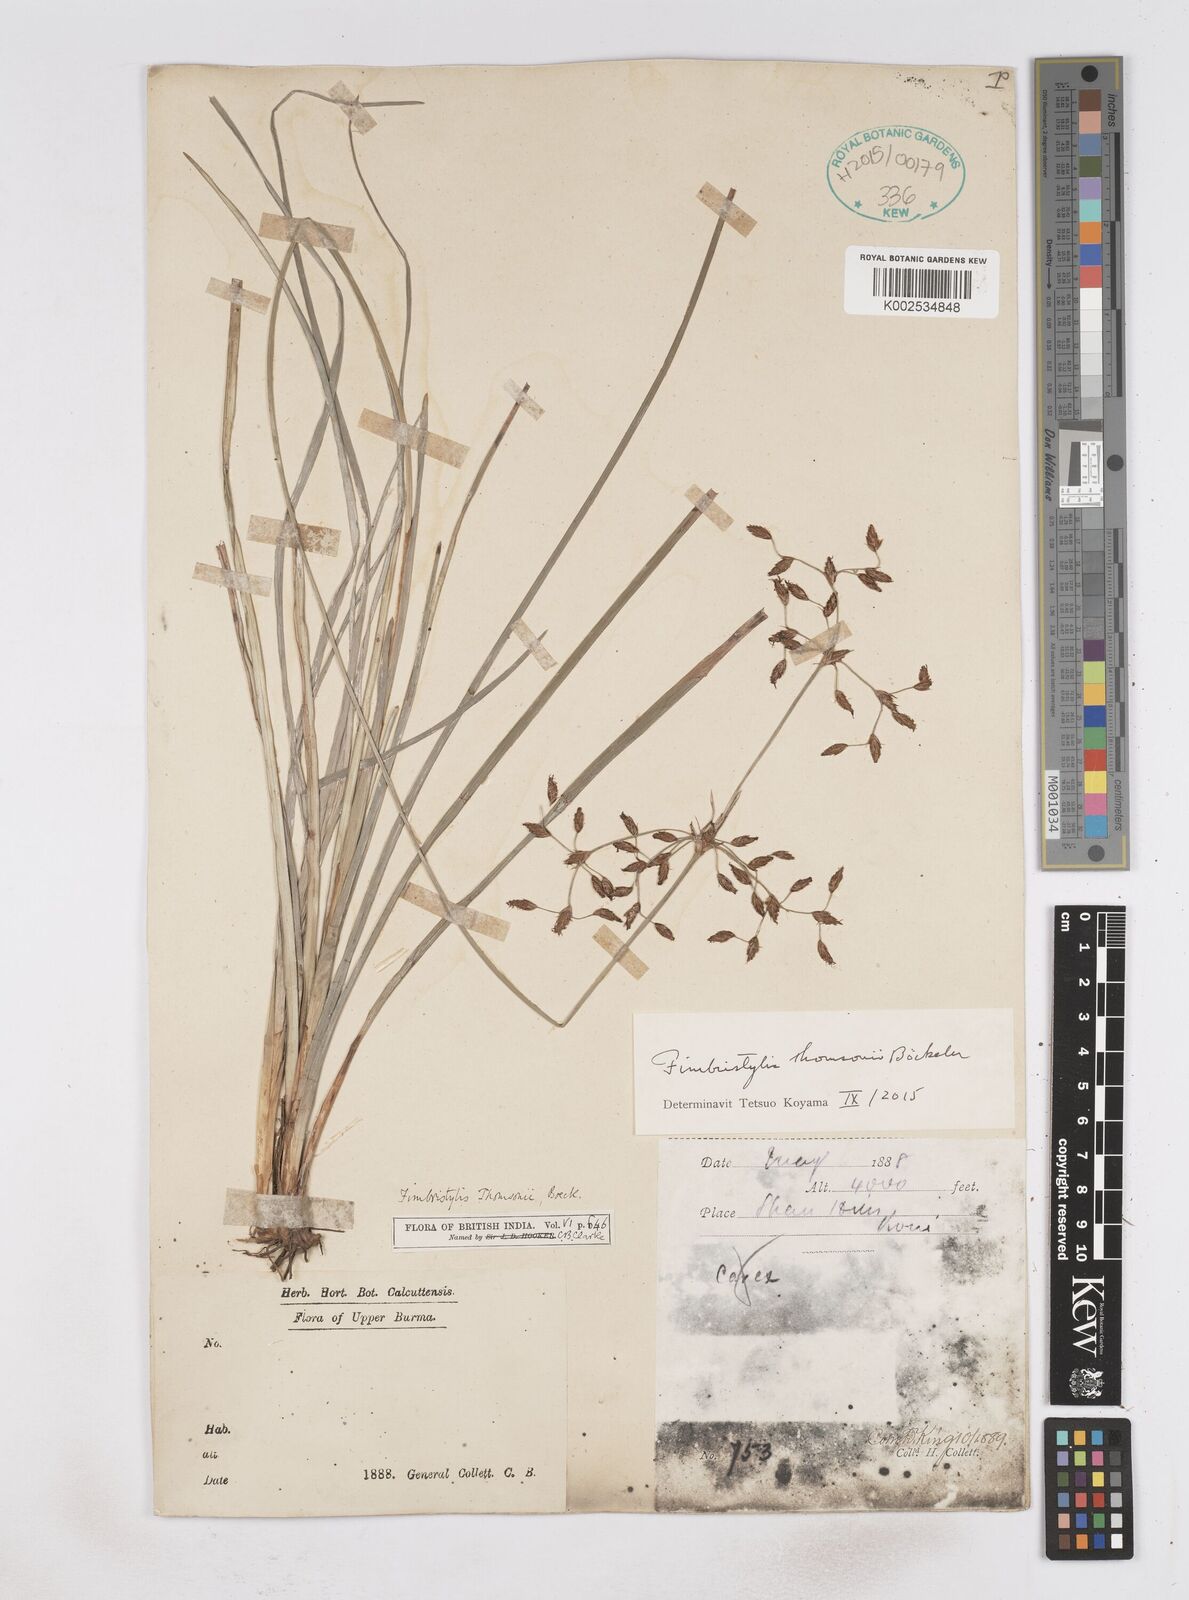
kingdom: Plantae
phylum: Tracheophyta
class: Liliopsida
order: Poales
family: Cyperaceae
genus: Fimbristylis
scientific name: Fimbristylis thomsonii
